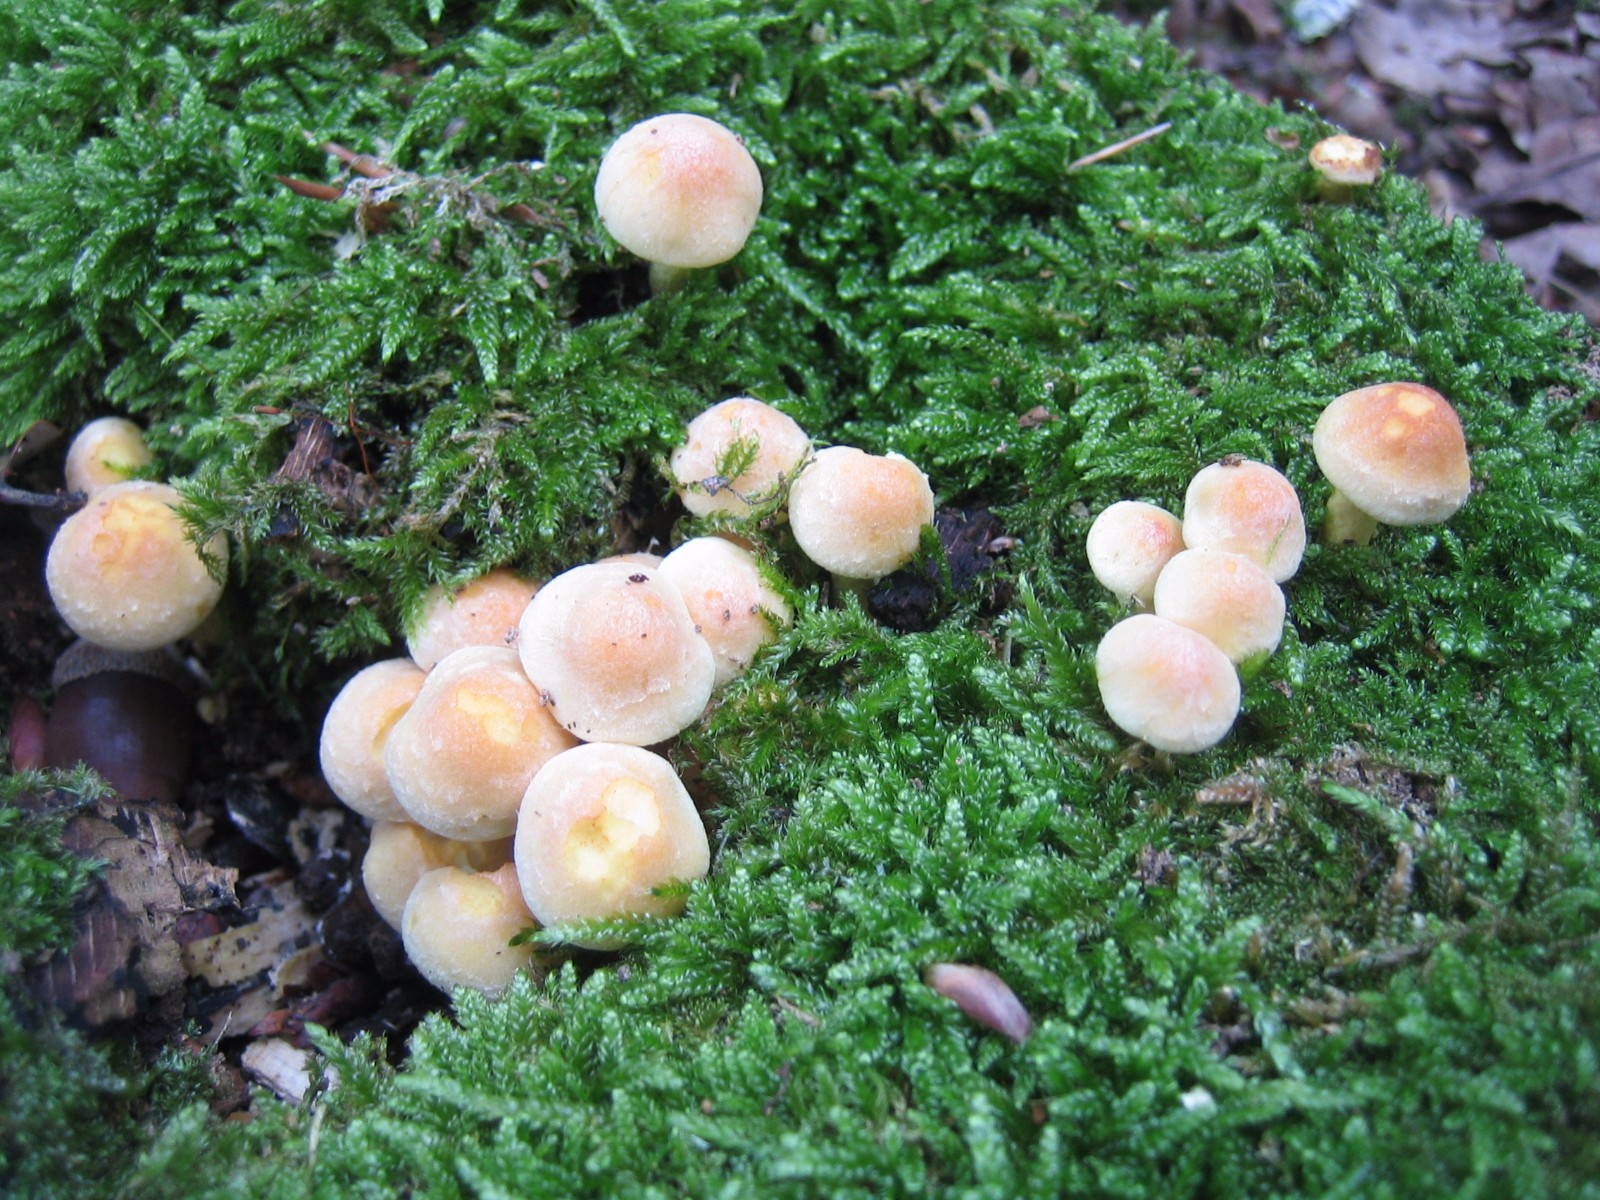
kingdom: Fungi
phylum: Basidiomycota
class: Agaricomycetes
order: Agaricales
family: Strophariaceae
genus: Hypholoma
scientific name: Hypholoma fasciculare
